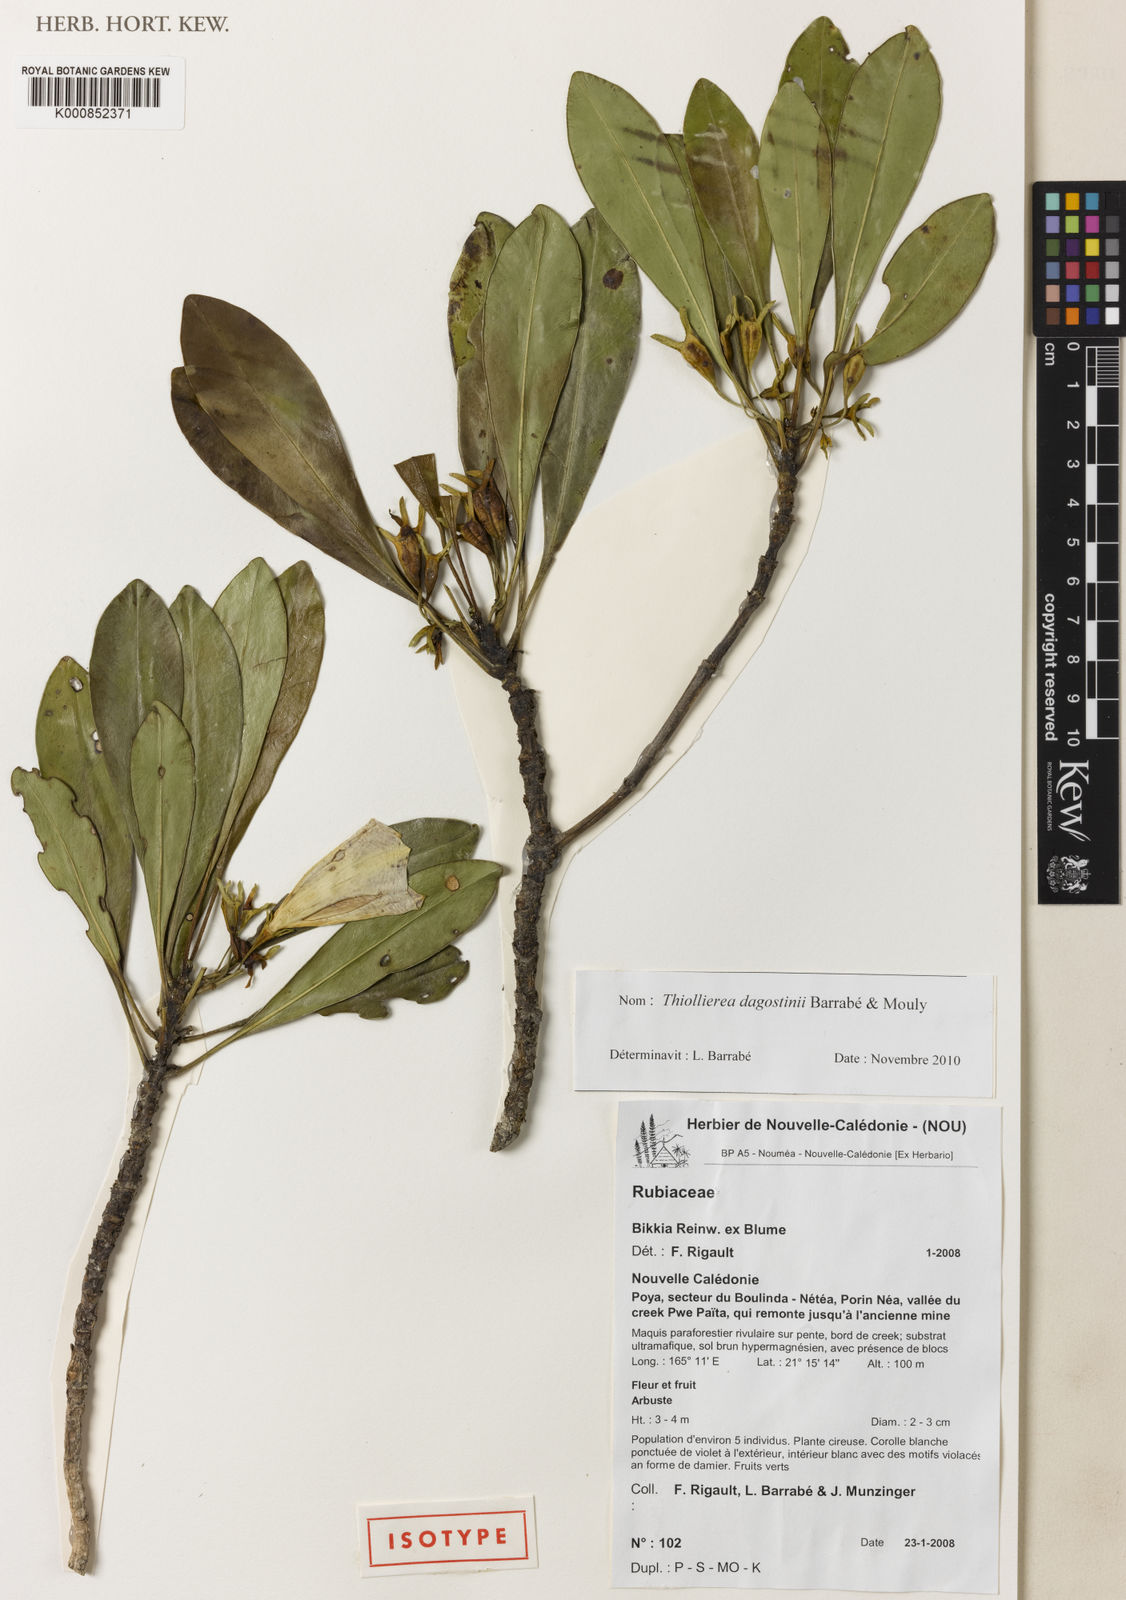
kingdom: Plantae
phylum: Tracheophyta
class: Magnoliopsida
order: Gentianales
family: Rubiaceae
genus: Thiollierea
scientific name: Thiollierea
